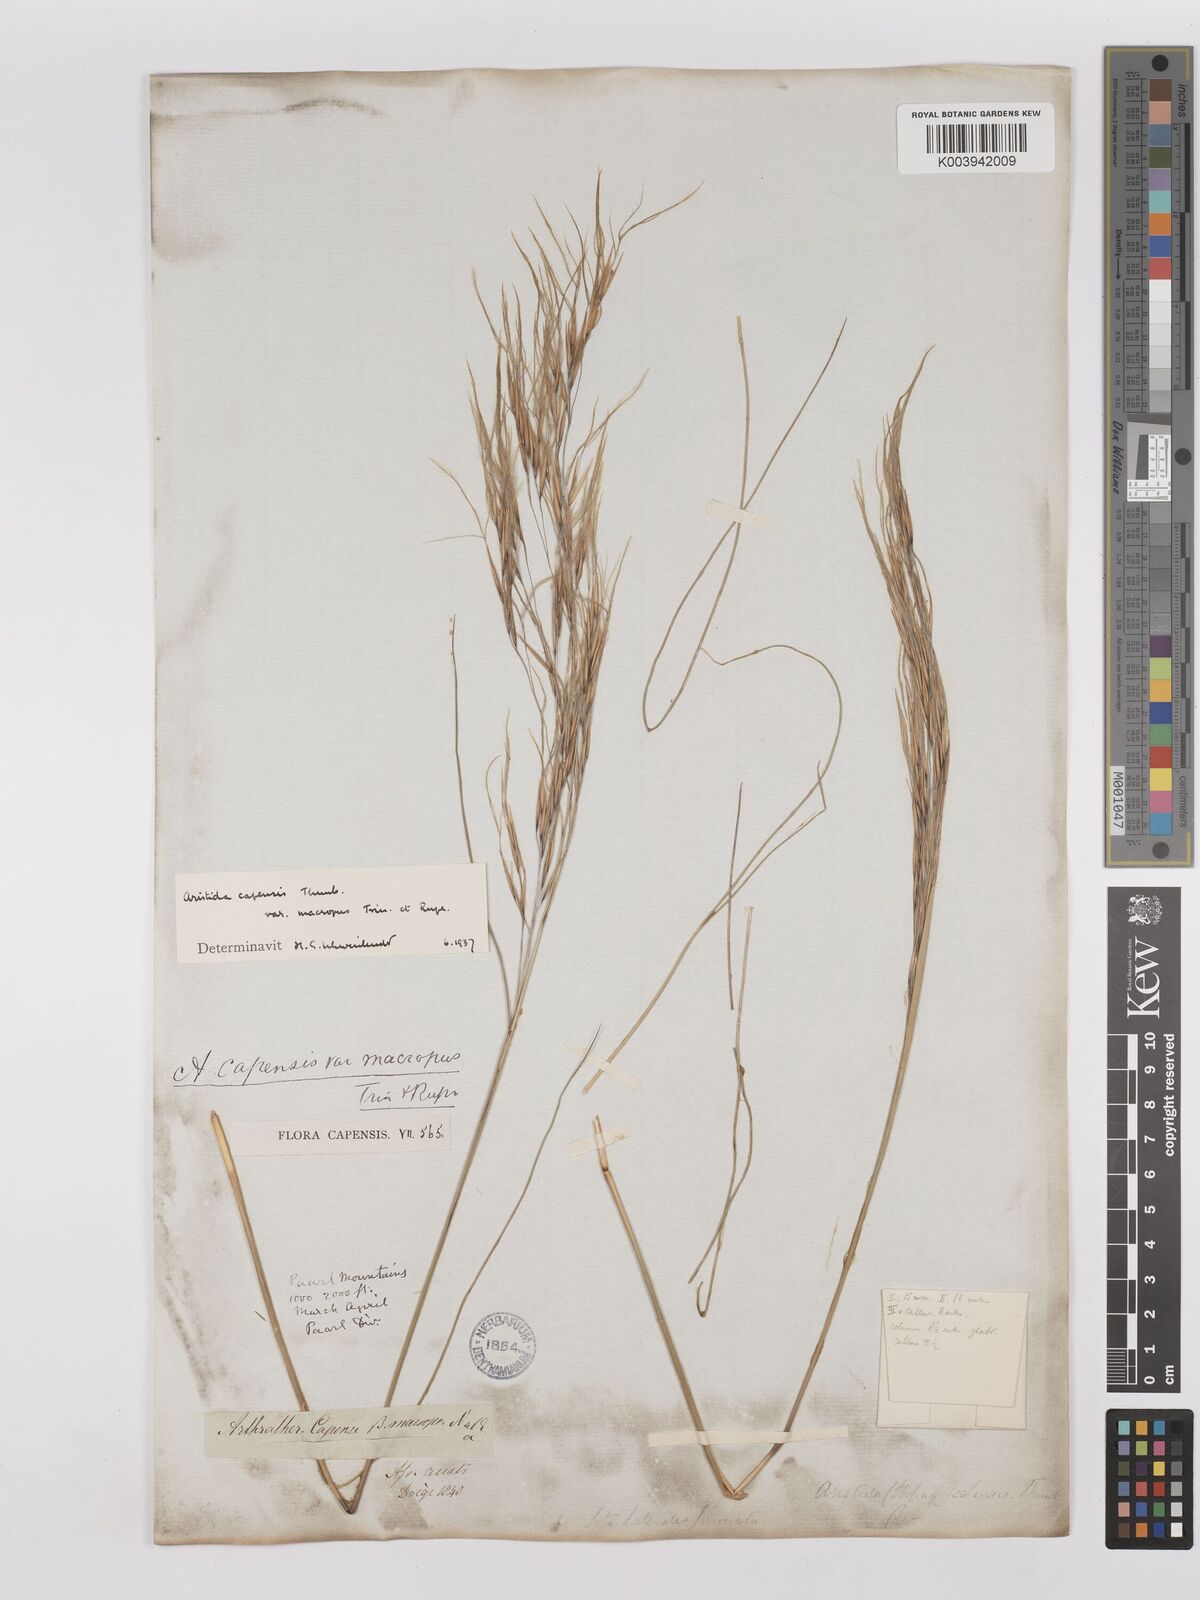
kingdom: Plantae
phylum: Tracheophyta
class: Liliopsida
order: Poales
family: Poaceae
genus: Stipagrostis
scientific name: Stipagrostis zeyheri
